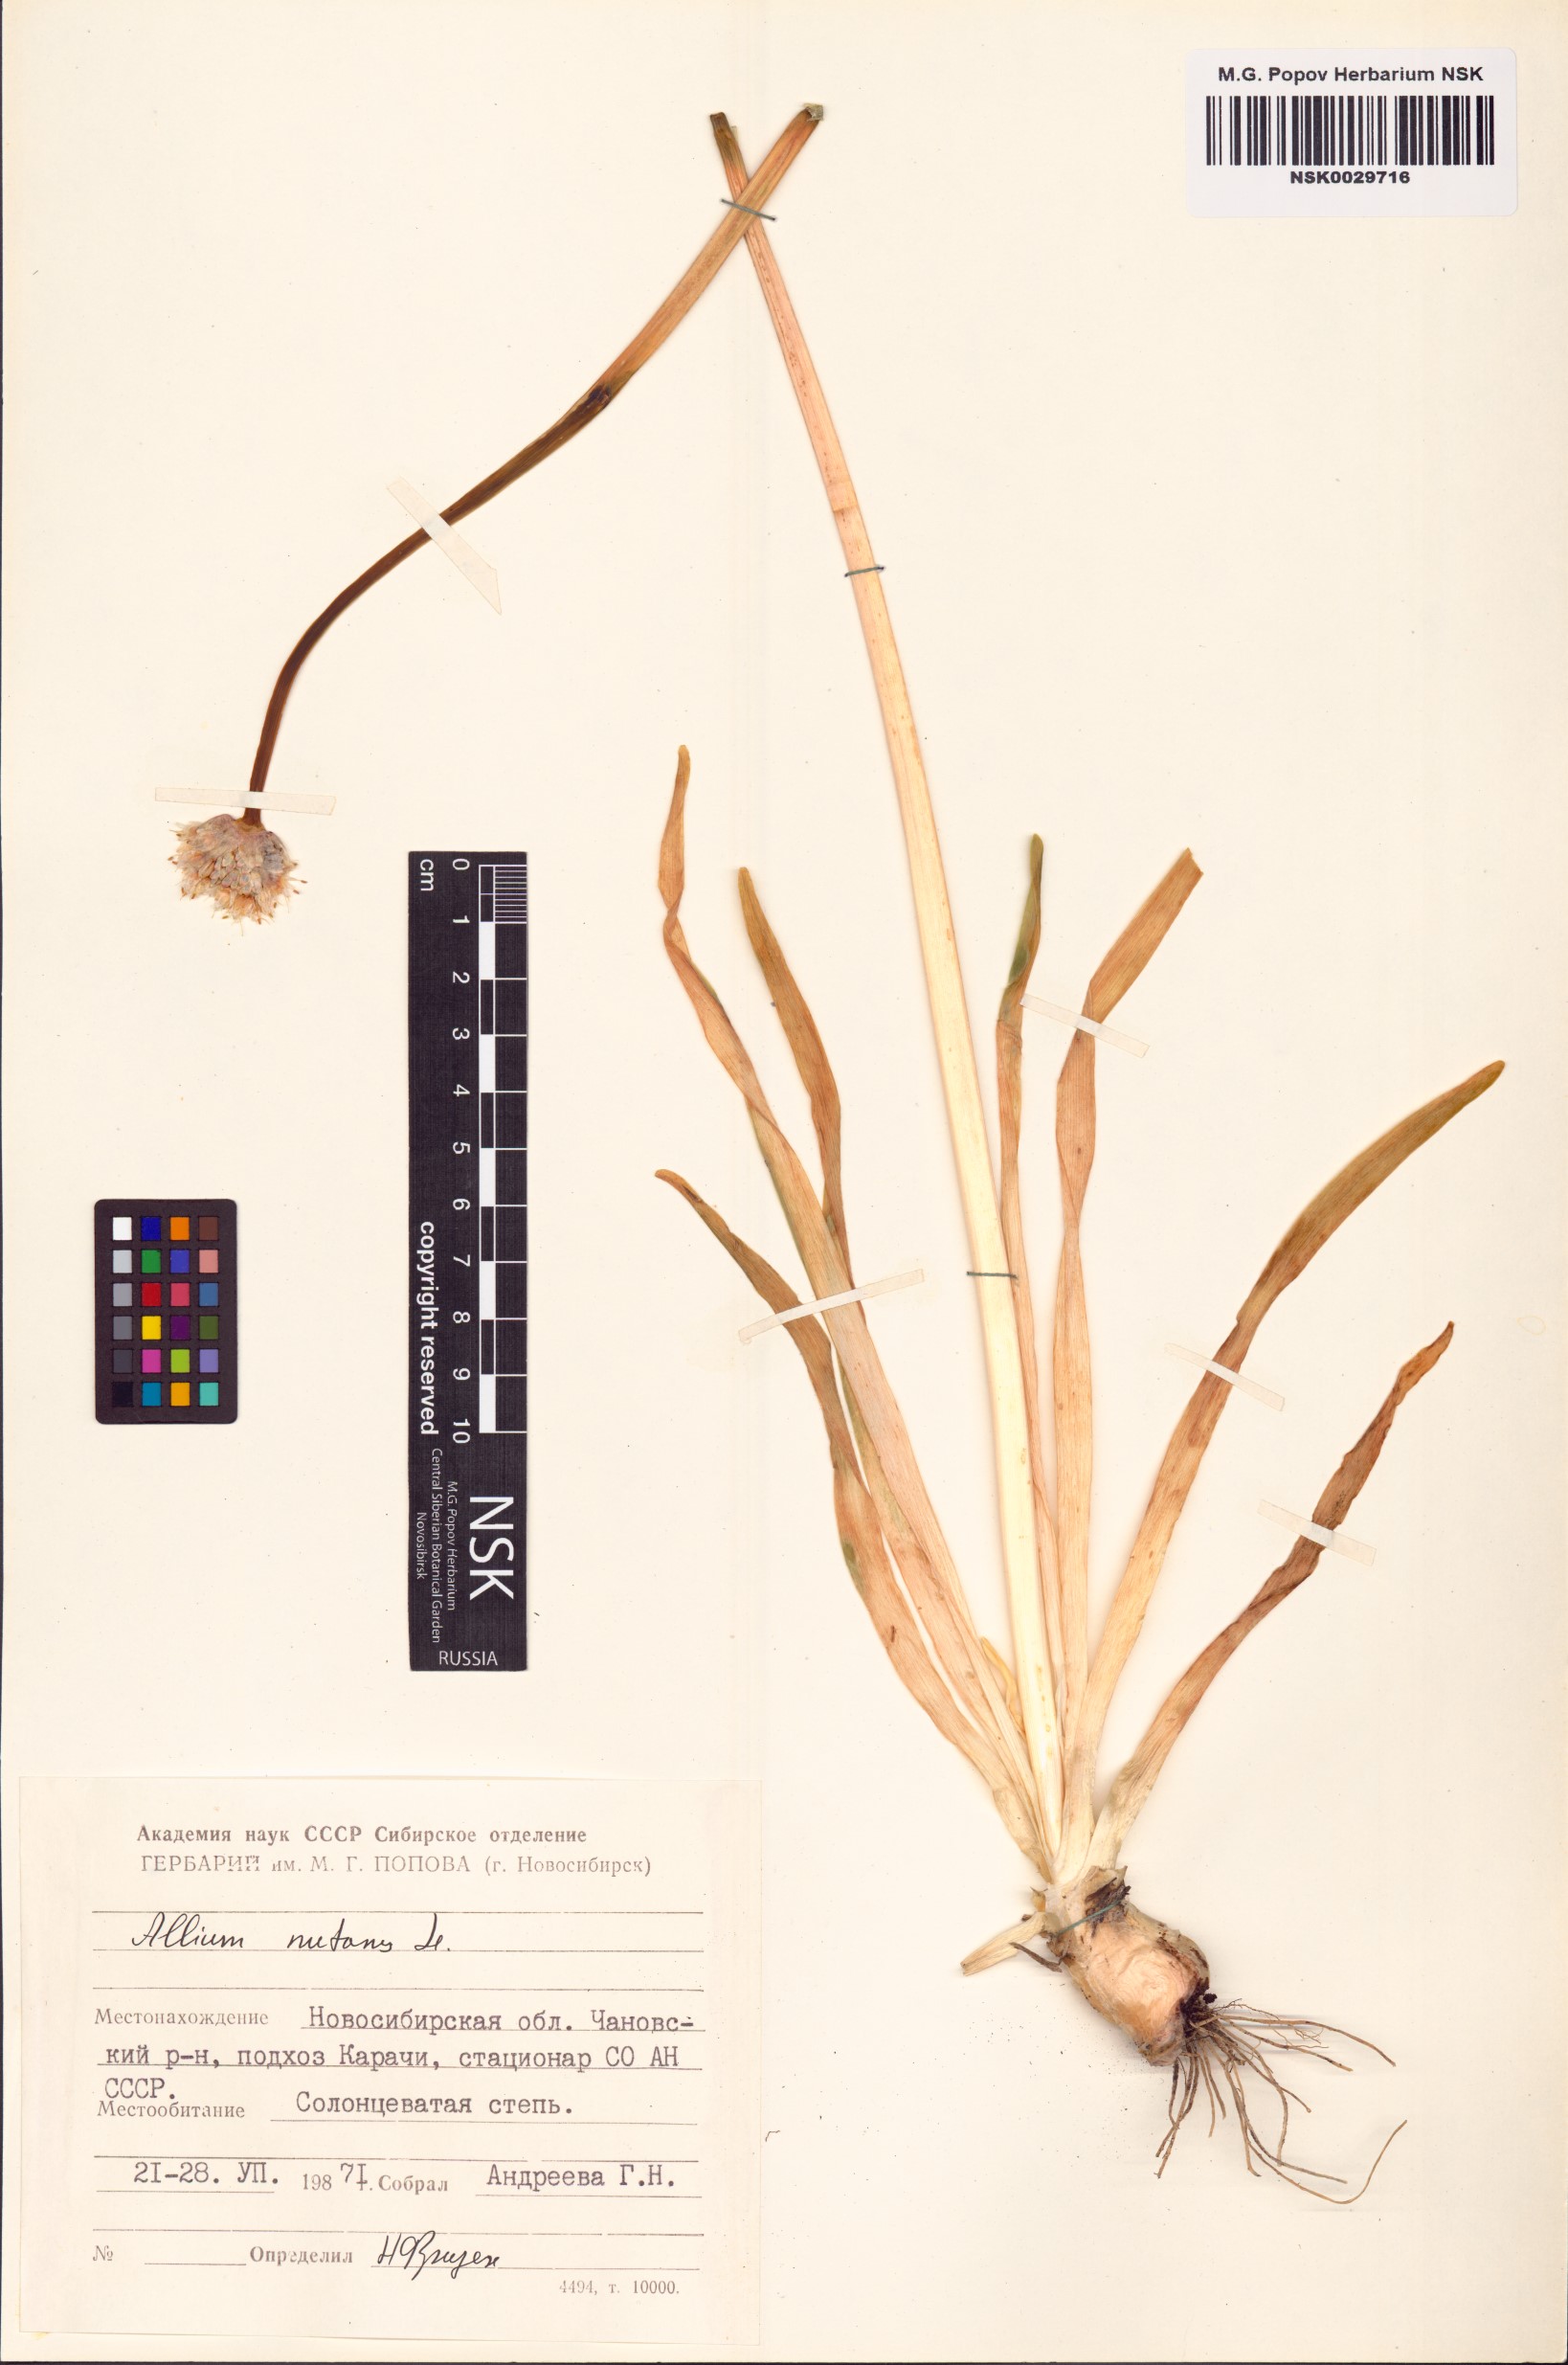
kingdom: Plantae
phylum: Tracheophyta
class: Liliopsida
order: Asparagales
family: Amaryllidaceae
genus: Allium
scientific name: Allium nutans
